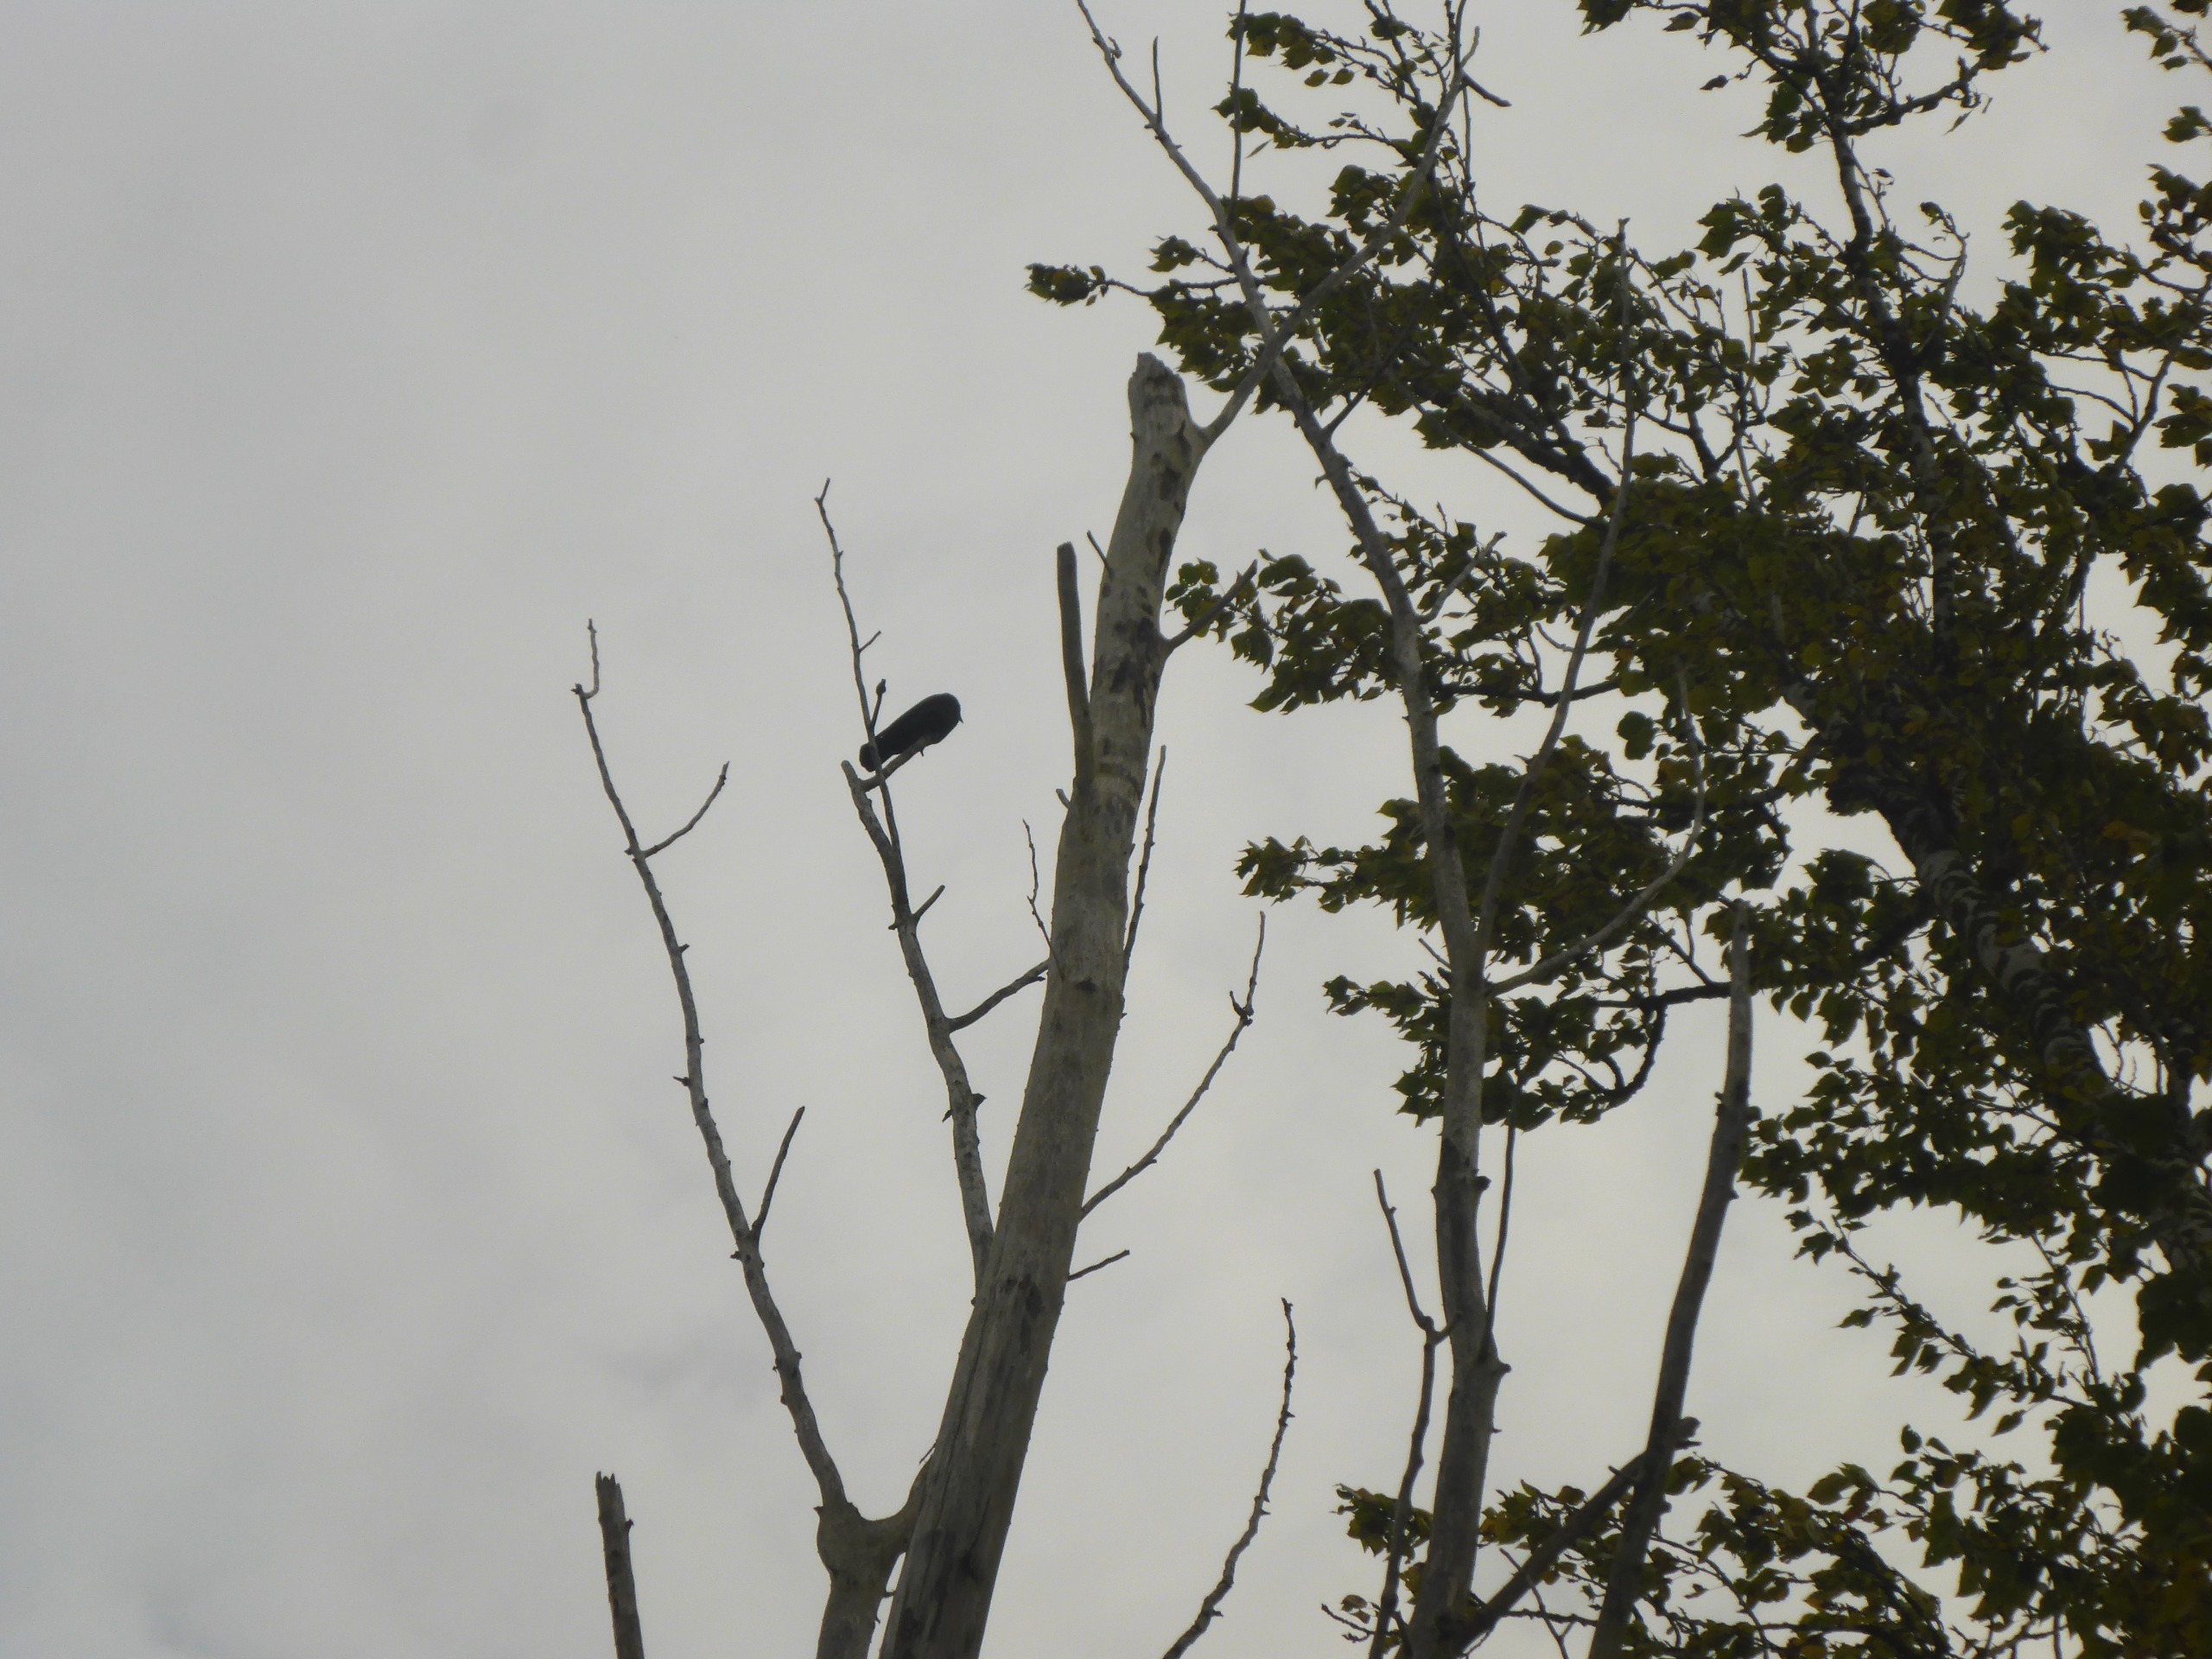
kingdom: Animalia
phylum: Chordata
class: Aves
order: Passeriformes
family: Corvidae
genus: Coloeus
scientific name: Coloeus monedula
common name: Allike
